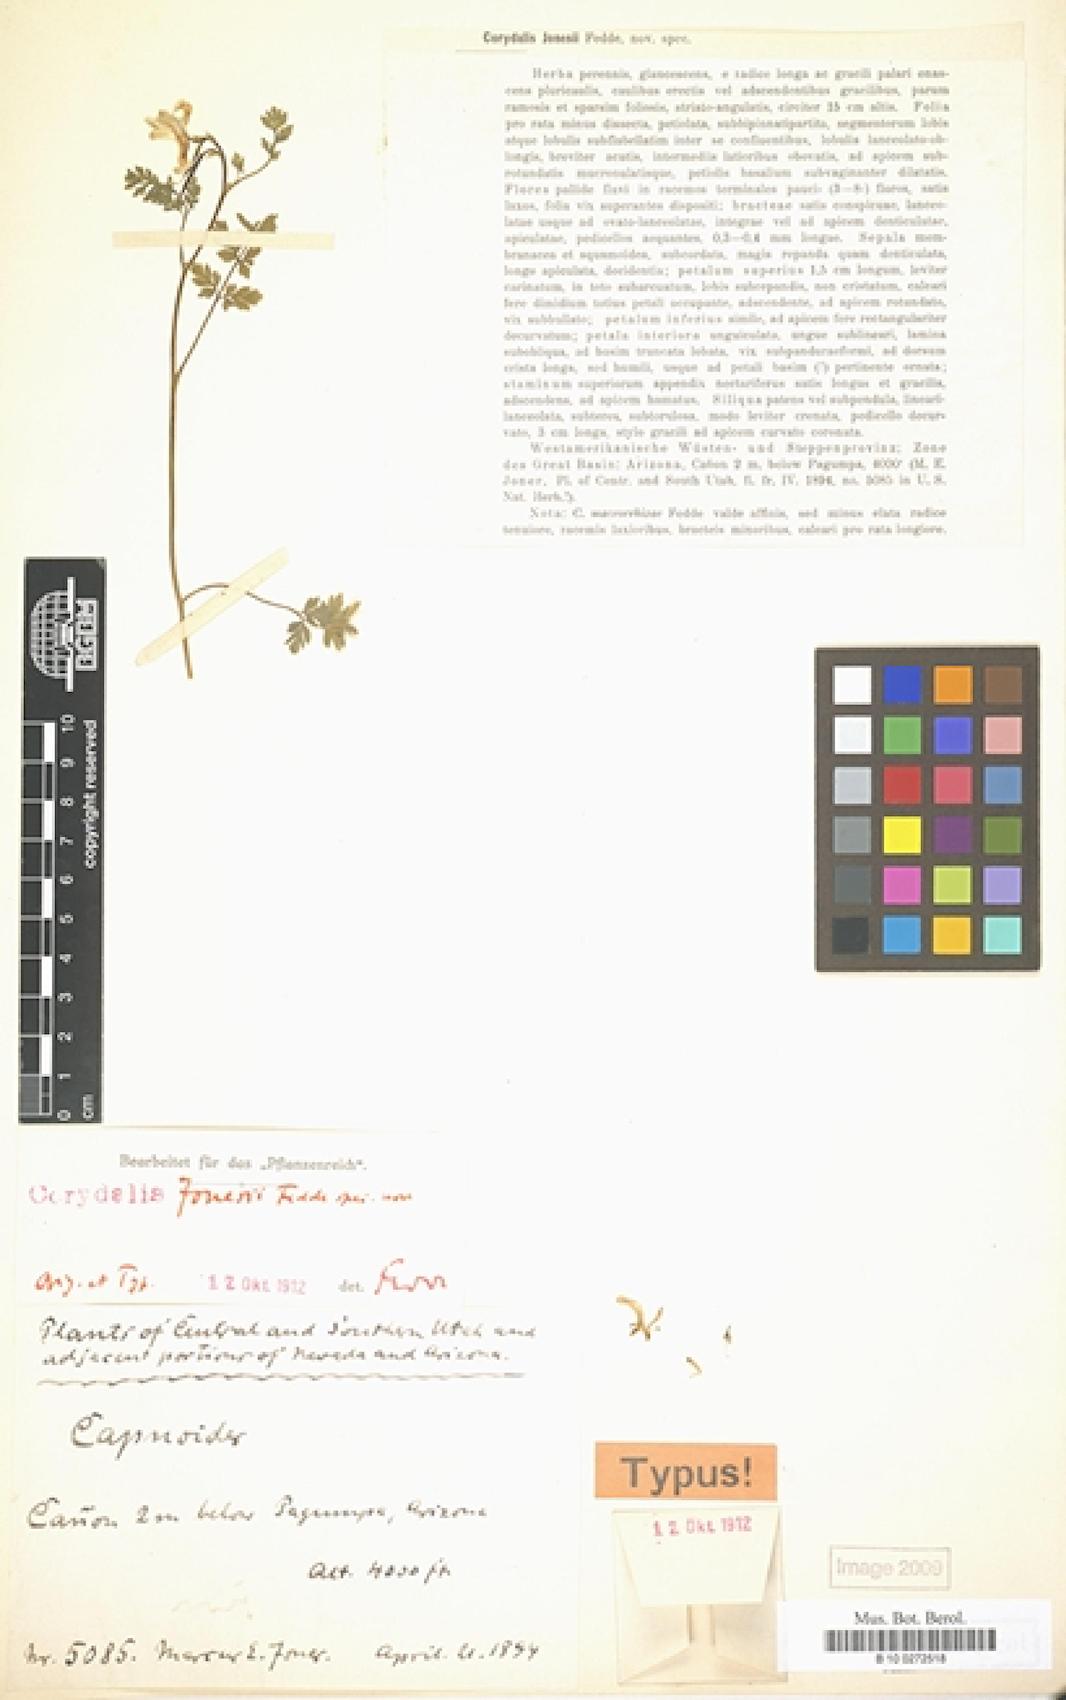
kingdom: Plantae
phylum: Tracheophyta
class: Magnoliopsida
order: Ranunculales
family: Papaveraceae
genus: Corydalis
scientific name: Corydalis aurea
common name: Golden corydalis
